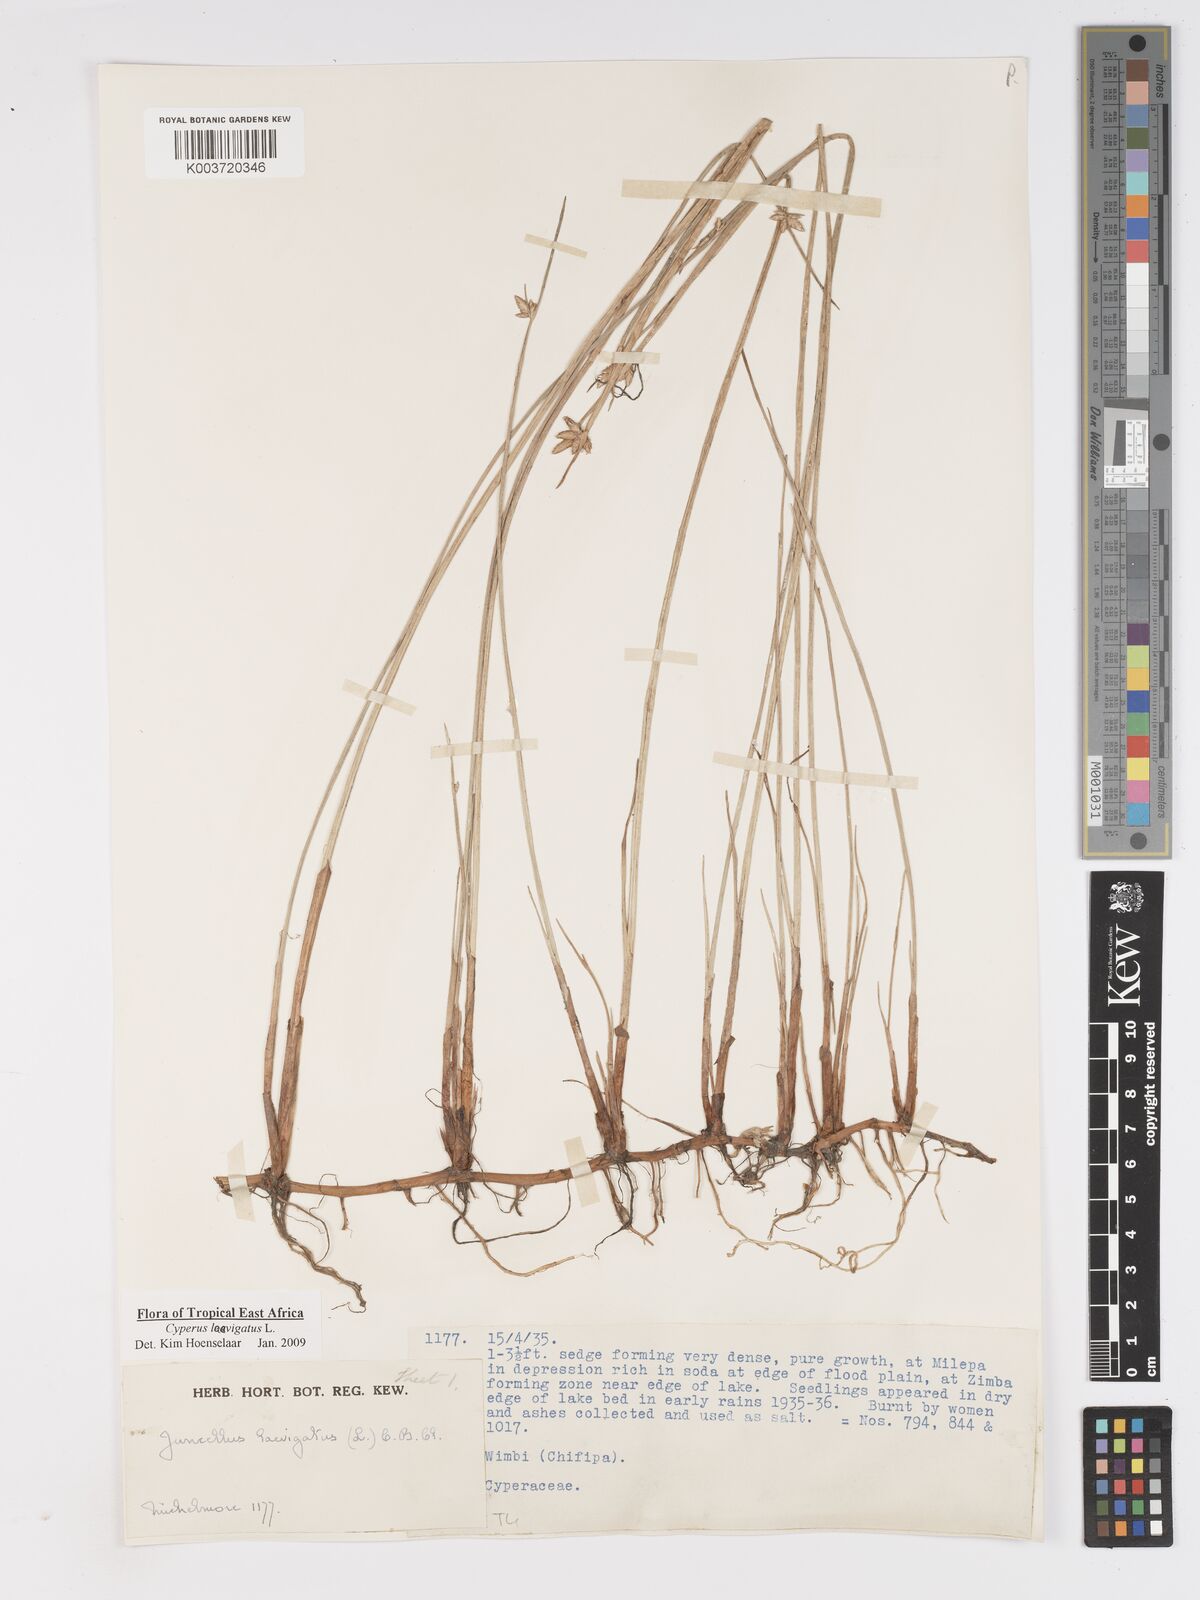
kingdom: Plantae
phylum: Tracheophyta
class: Liliopsida
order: Poales
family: Cyperaceae
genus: Cyperus
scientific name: Cyperus laevigatus
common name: Smooth flat sedge
